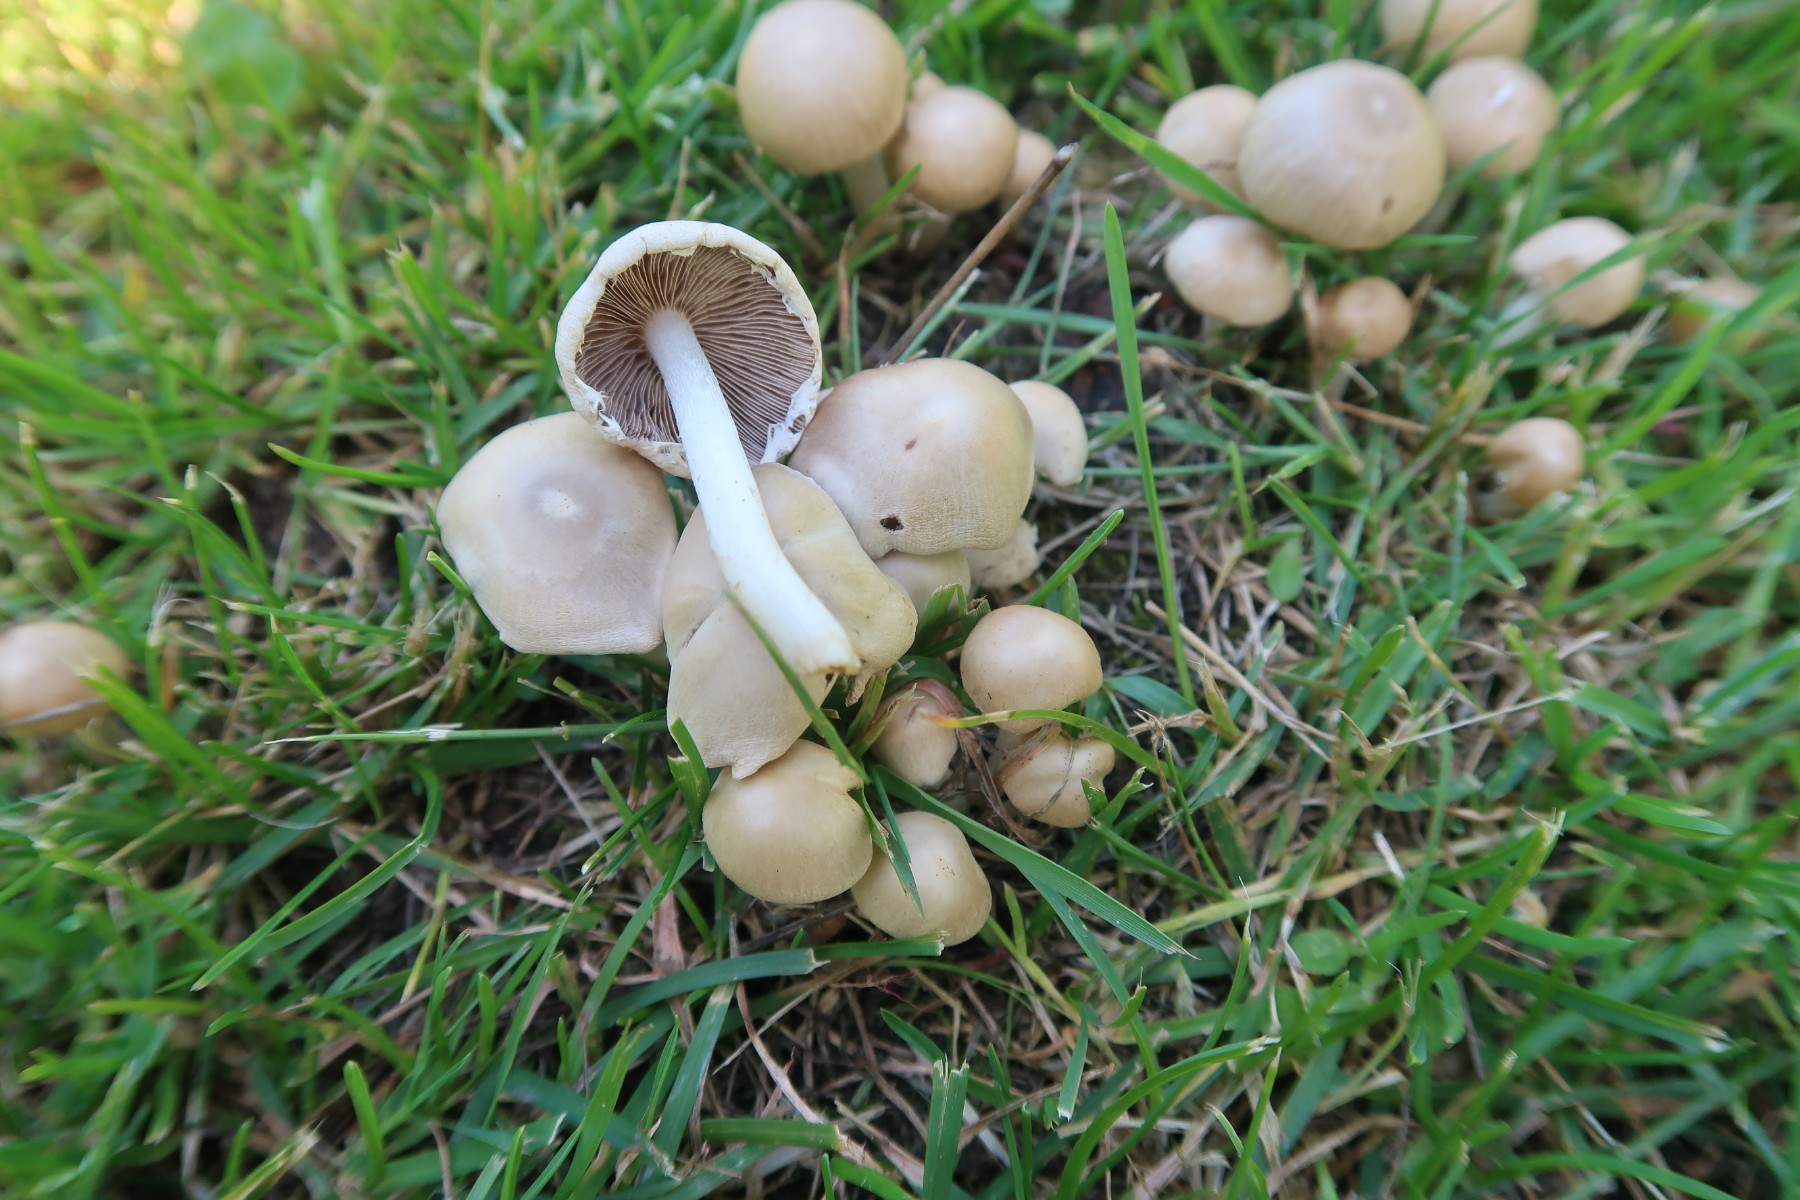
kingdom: Fungi
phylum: Basidiomycota
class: Agaricomycetes
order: Agaricales
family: Psathyrellaceae
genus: Candolleomyces
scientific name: Candolleomyces candolleanus
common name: Candolles mørkhat
